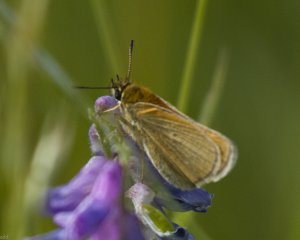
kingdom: Animalia
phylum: Arthropoda
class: Insecta
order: Lepidoptera
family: Hesperiidae
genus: Thymelicus
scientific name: Thymelicus lineola
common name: European Skipper
